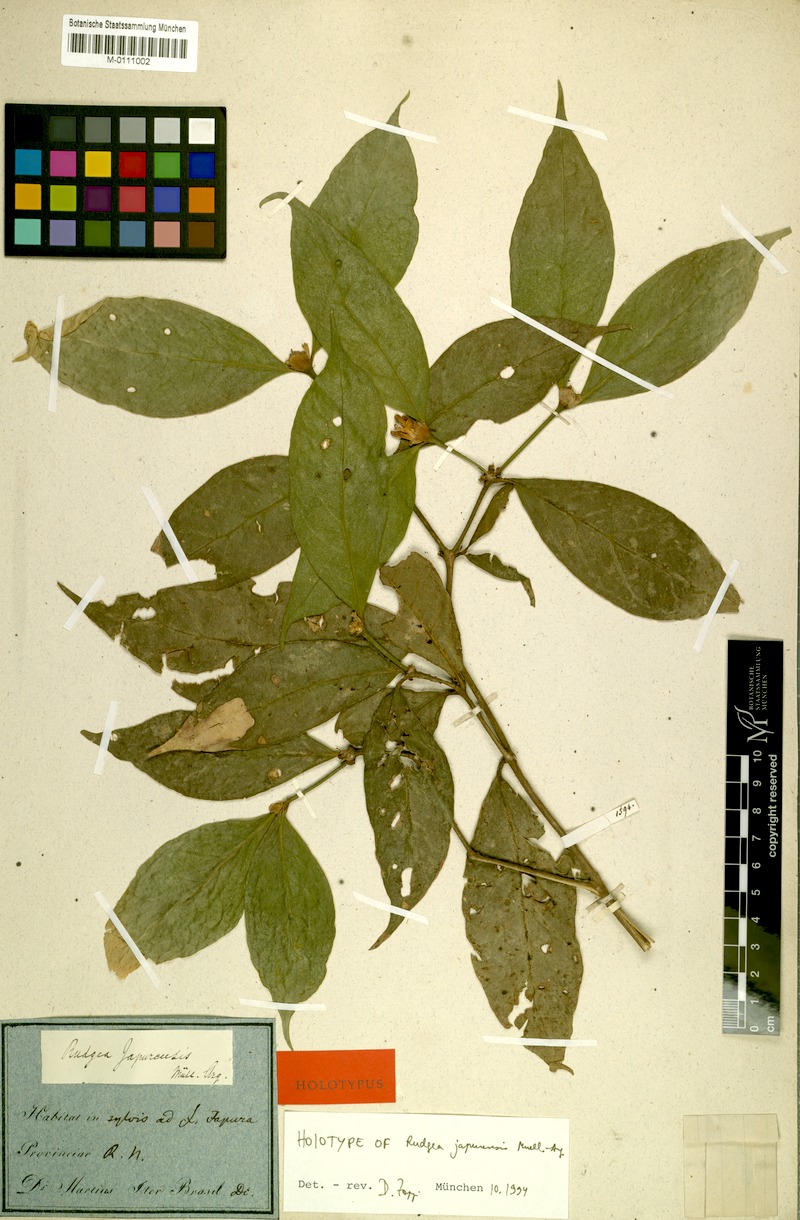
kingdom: Plantae
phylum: Tracheophyta
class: Magnoliopsida
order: Gentianales
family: Rubiaceae
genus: Rudgea
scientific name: Rudgea panurensis
